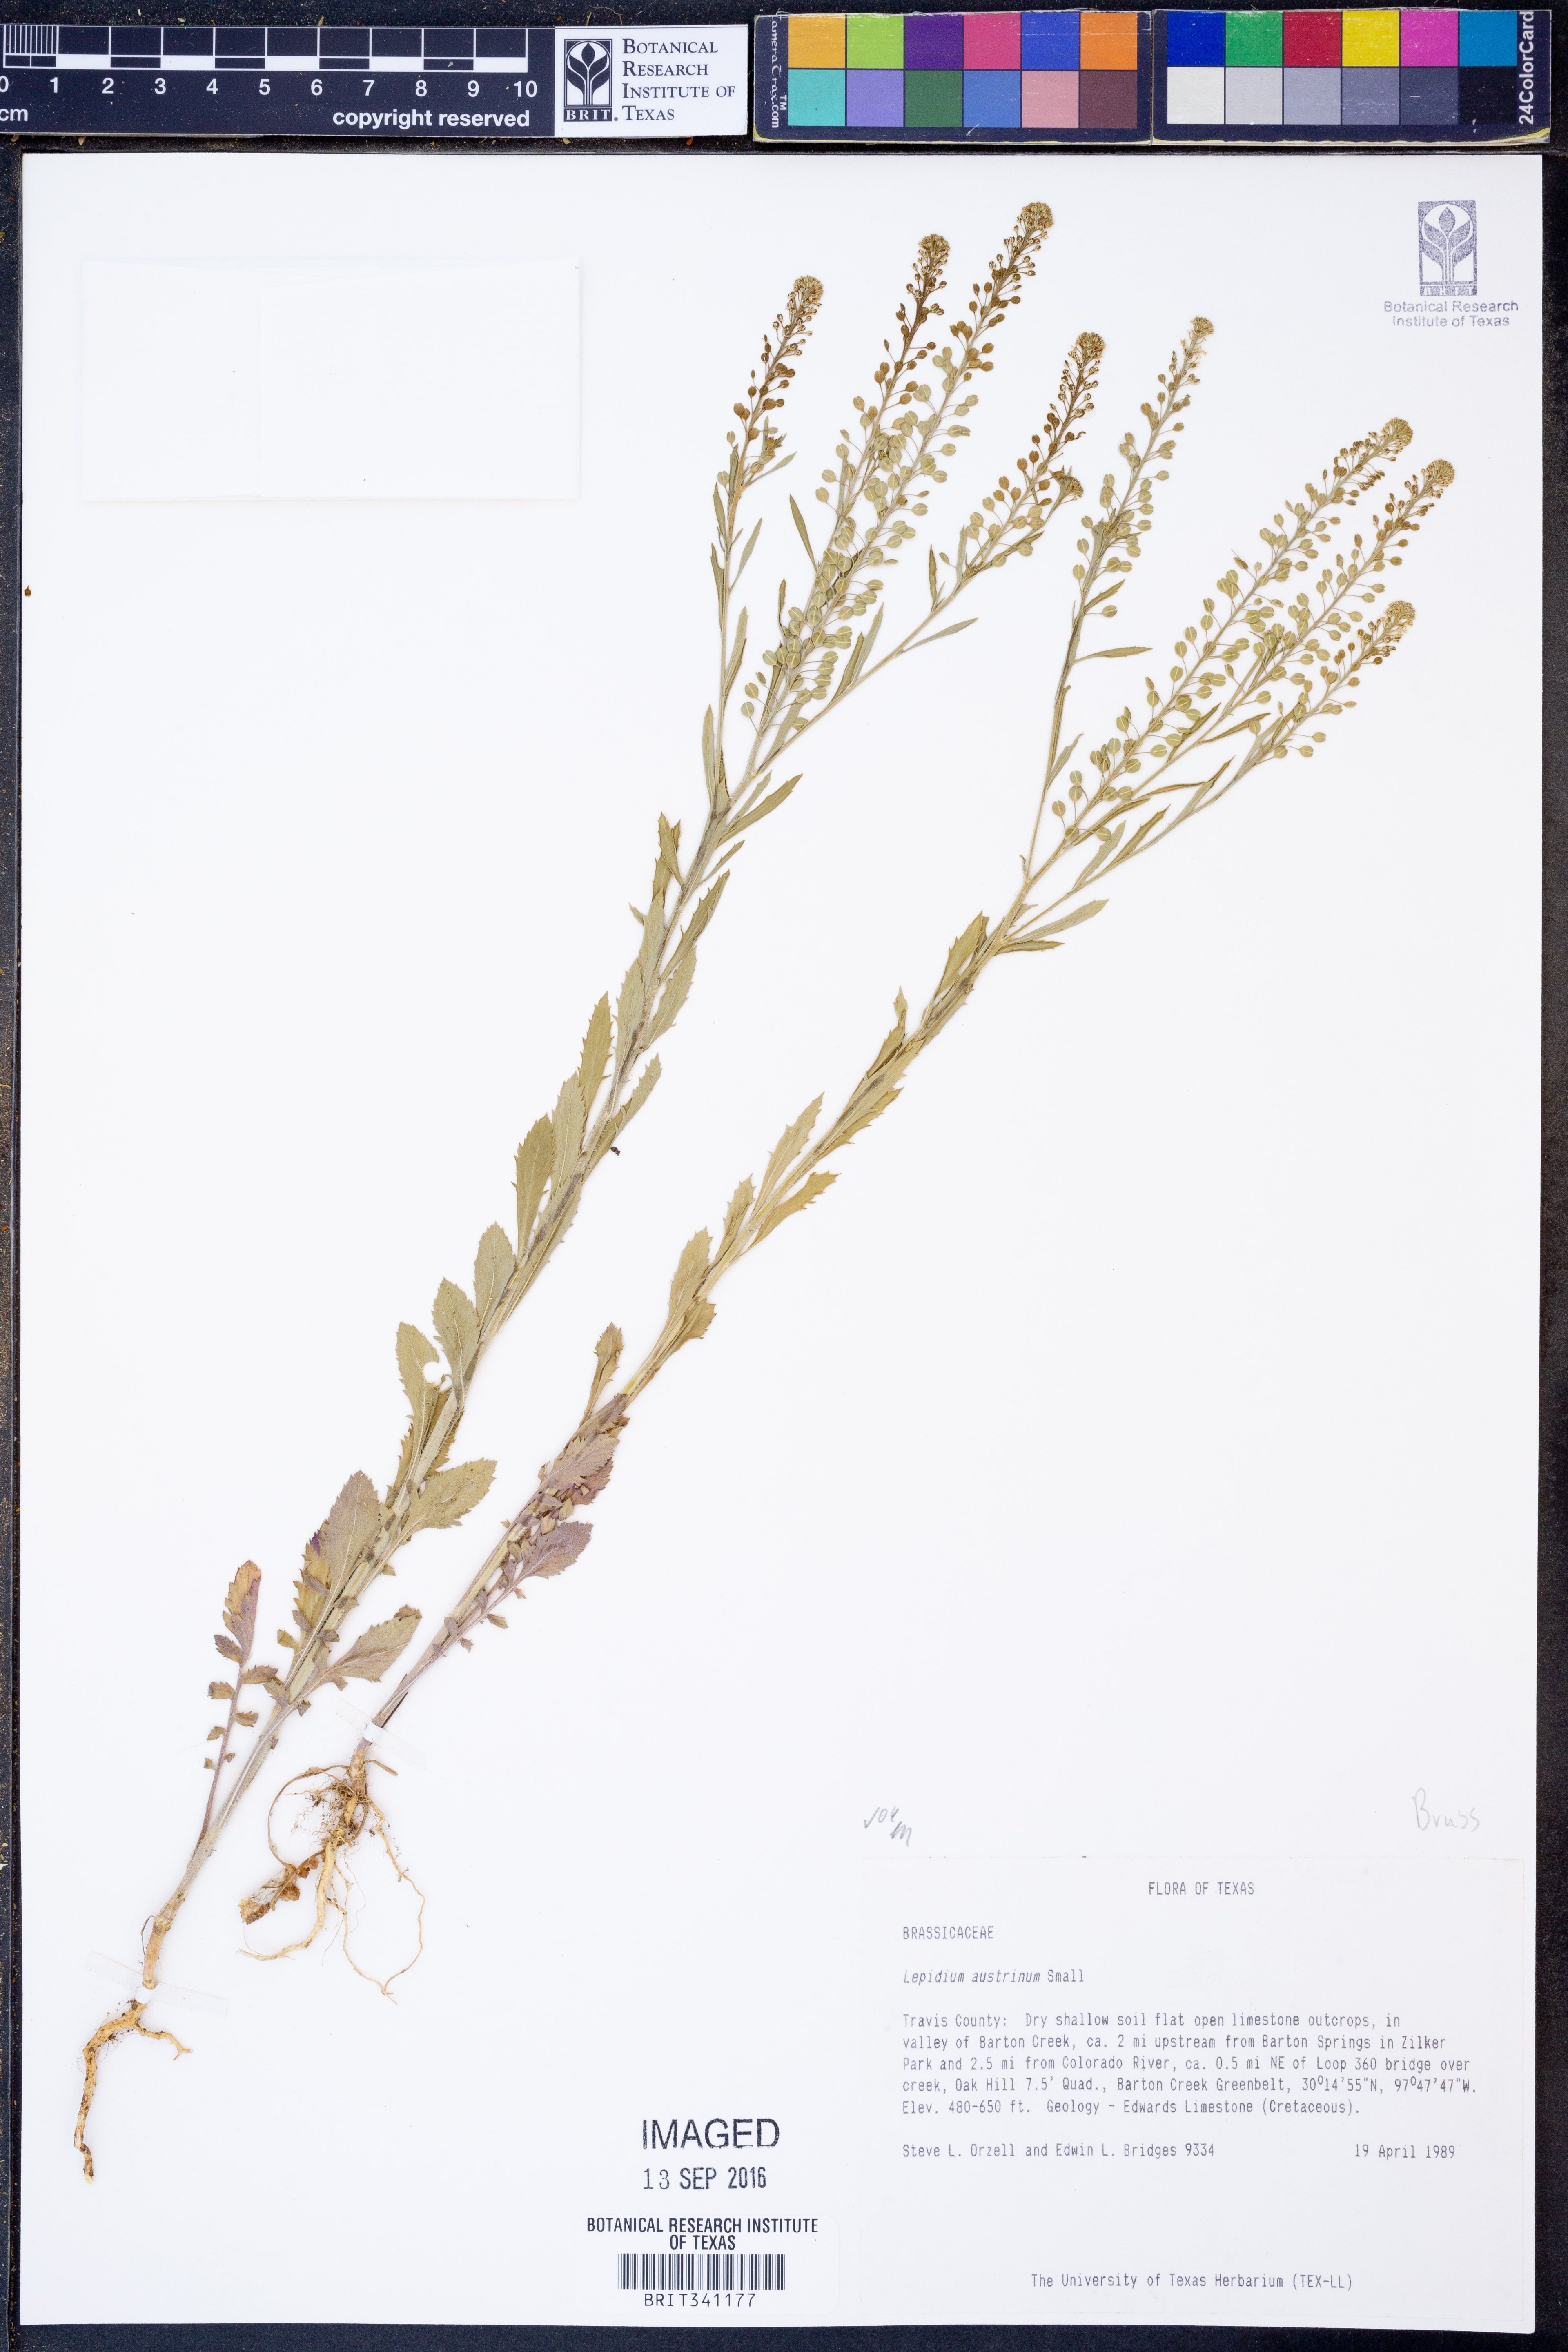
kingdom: Plantae
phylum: Tracheophyta
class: Magnoliopsida
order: Brassicales
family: Brassicaceae
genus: Lepidium
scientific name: Lepidium austrinum
